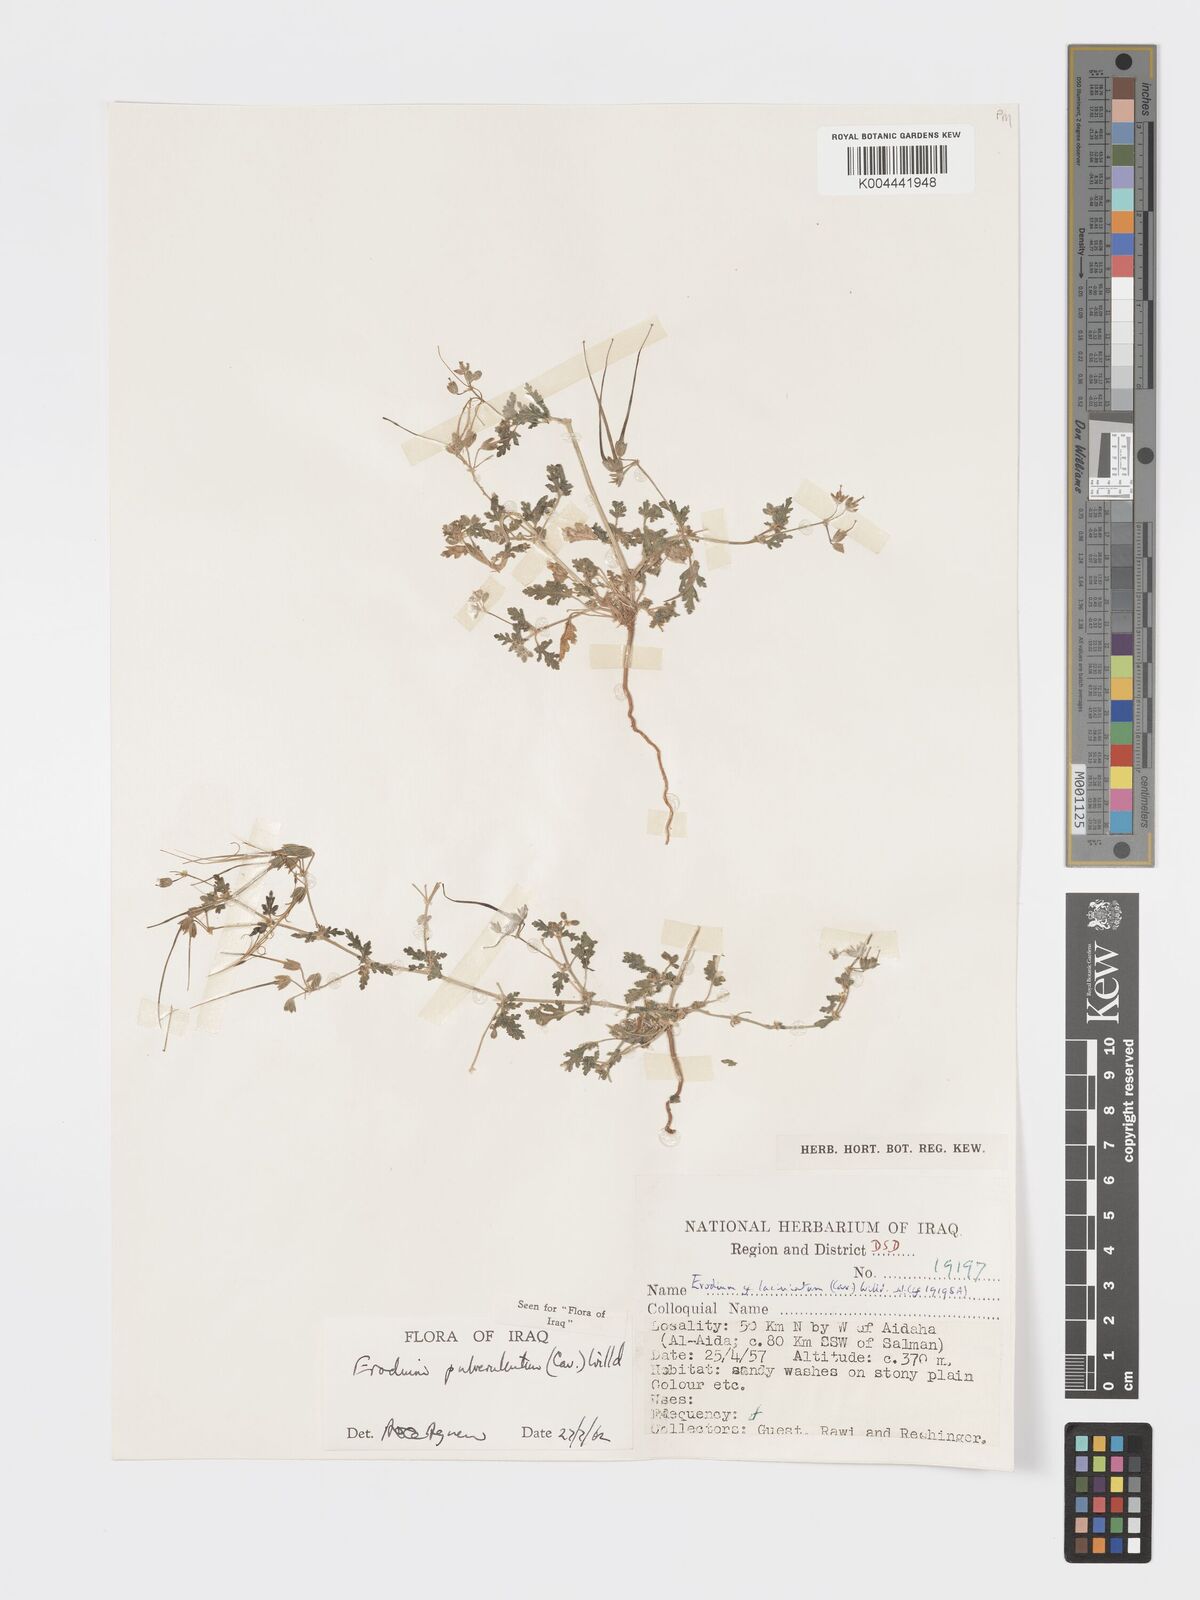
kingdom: Plantae
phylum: Tracheophyta
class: Magnoliopsida
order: Geraniales
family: Geraniaceae
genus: Erodium
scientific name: Erodium laciniatum
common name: Cutleaf stork's bill
